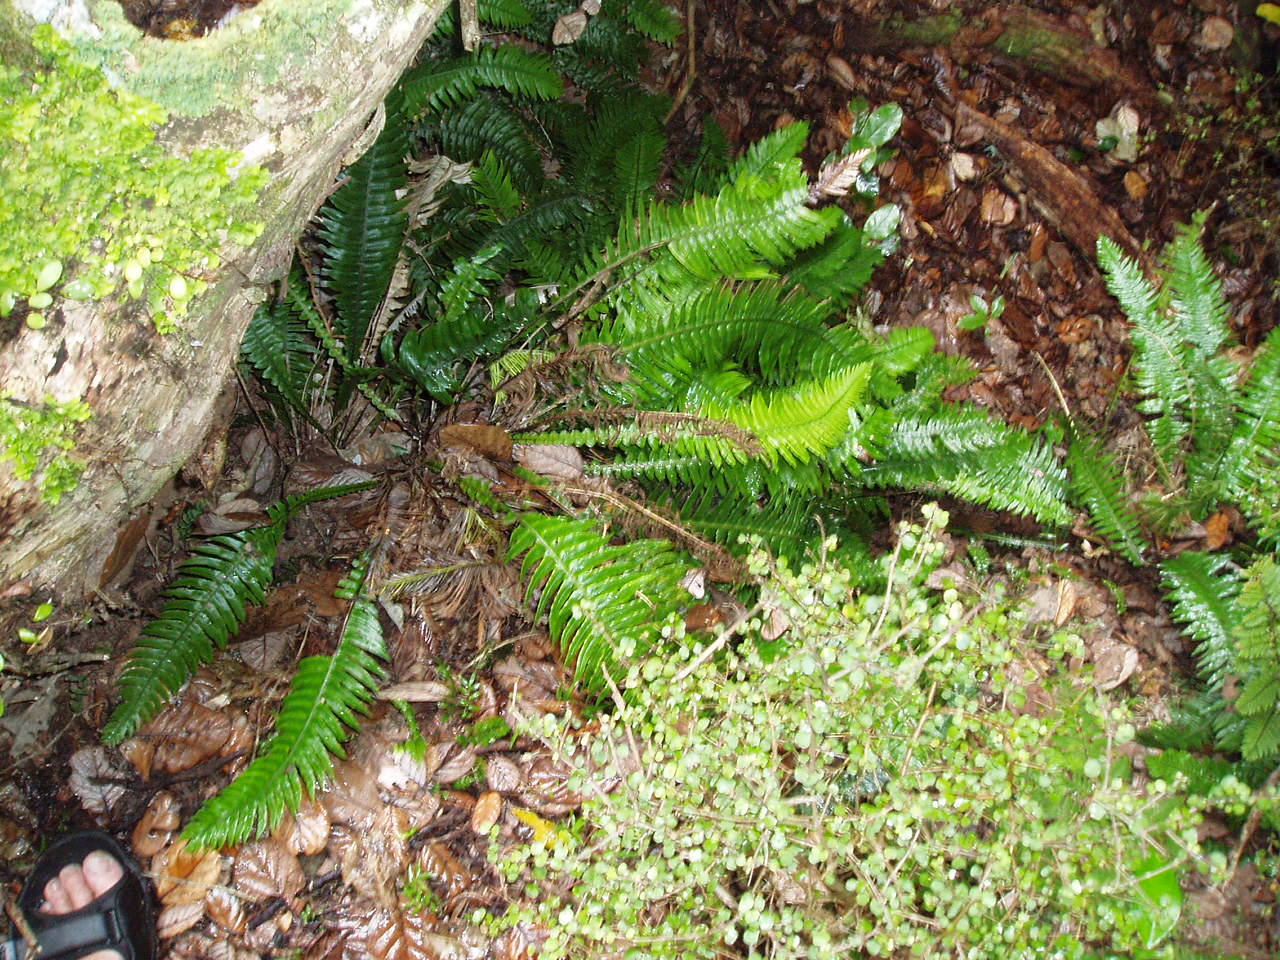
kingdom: Plantae
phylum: Tracheophyta
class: Polypodiopsida
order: Polypodiales
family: Blechnaceae
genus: Austroblechnum
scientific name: Austroblechnum norfolkianum
